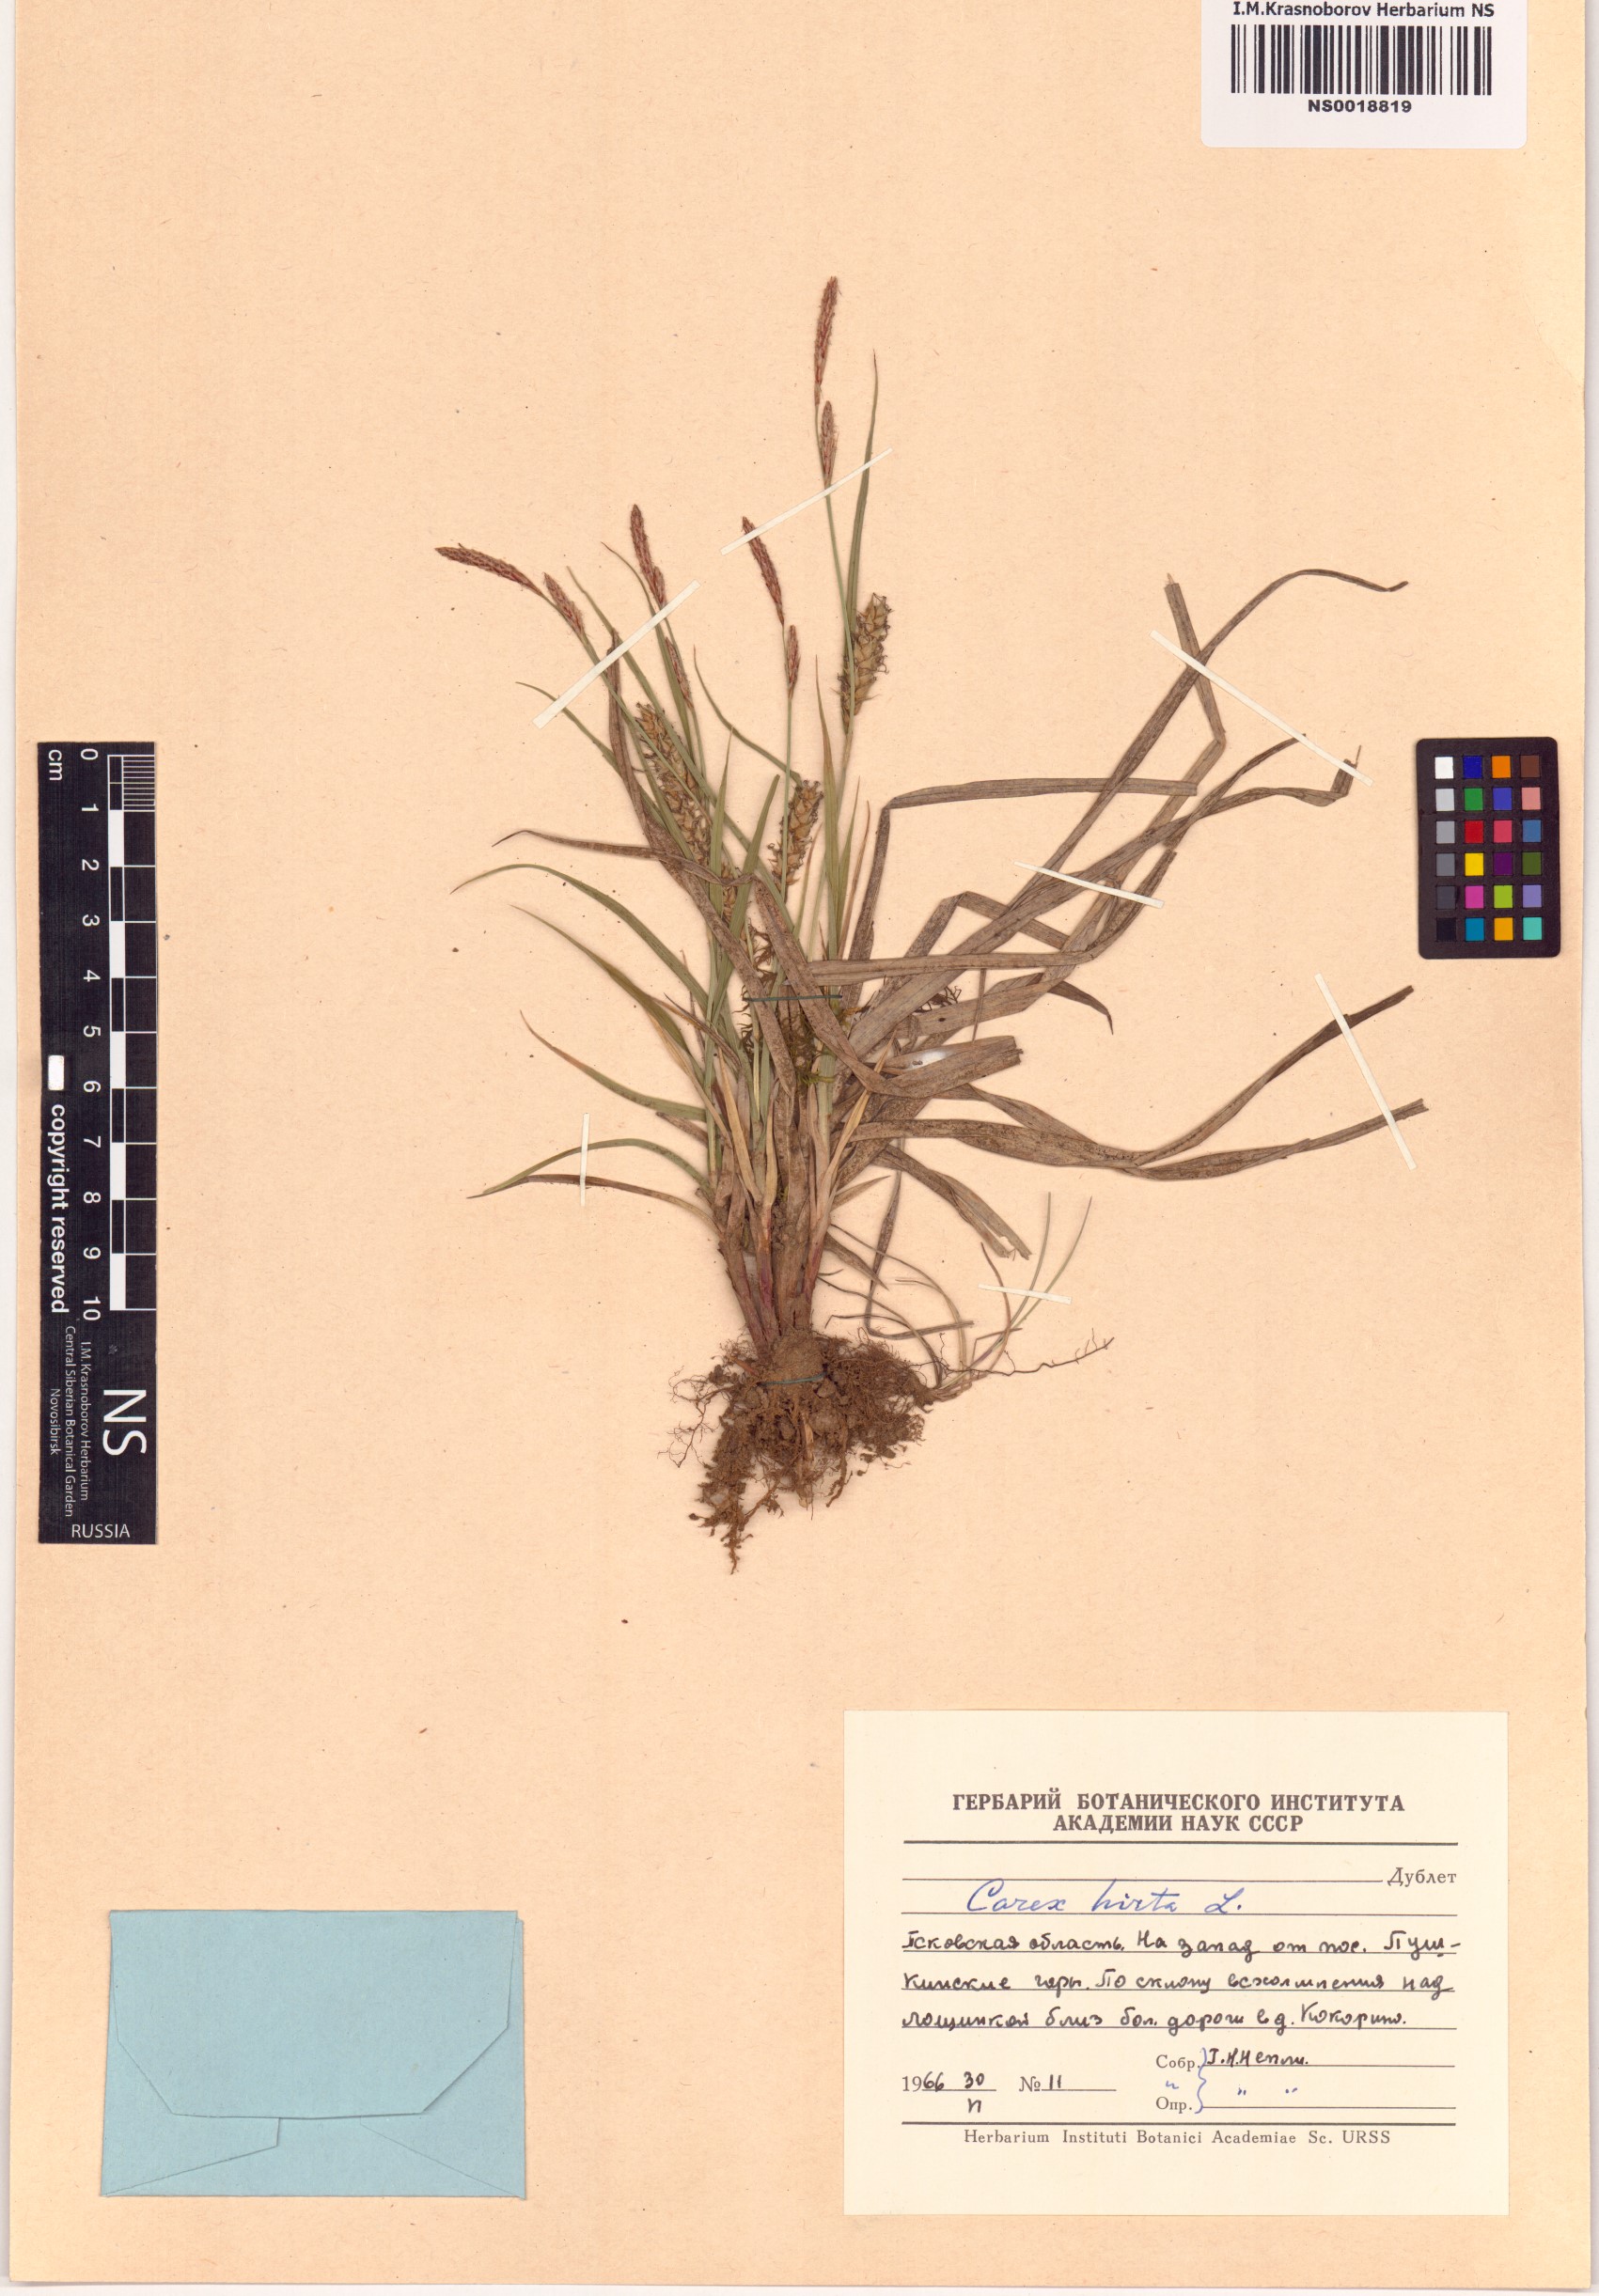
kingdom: Plantae
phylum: Tracheophyta
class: Liliopsida
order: Poales
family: Cyperaceae
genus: Carex
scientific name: Carex hirta
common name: Hairy sedge
